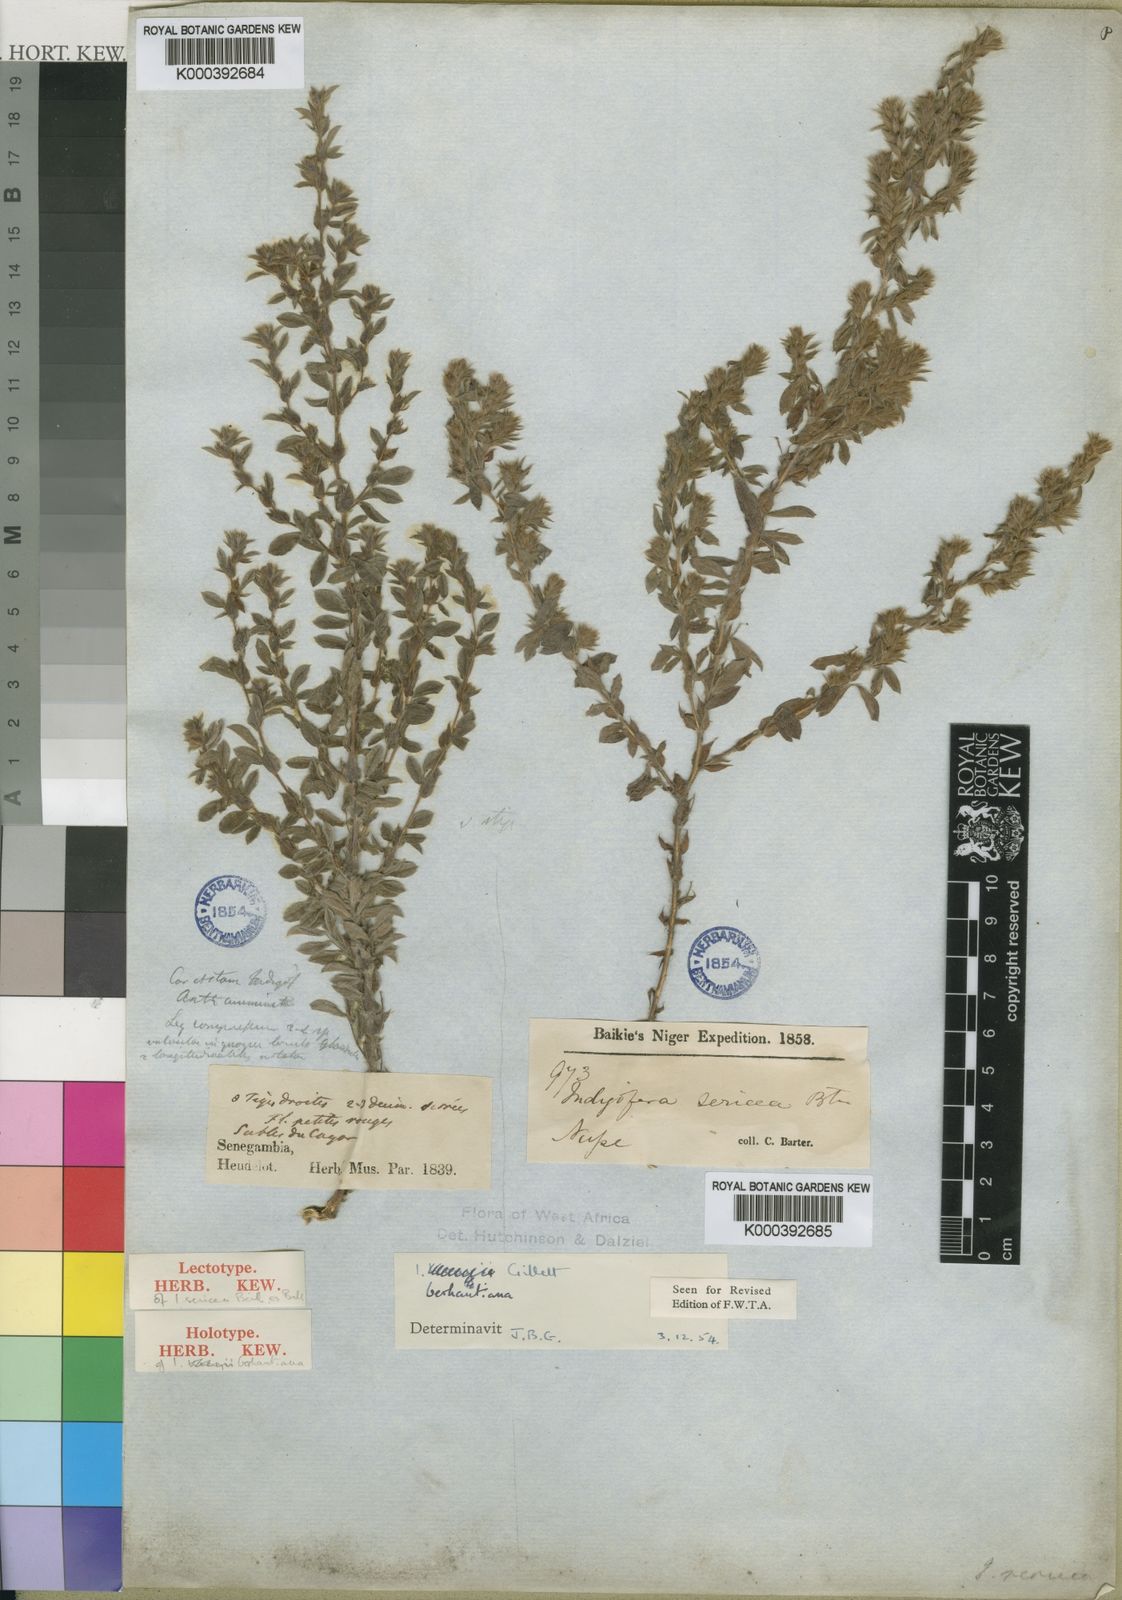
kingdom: Plantae
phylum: Tracheophyta
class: Magnoliopsida
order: Fabales
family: Fabaceae
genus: Indigofera
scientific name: Indigofera berhautiana
